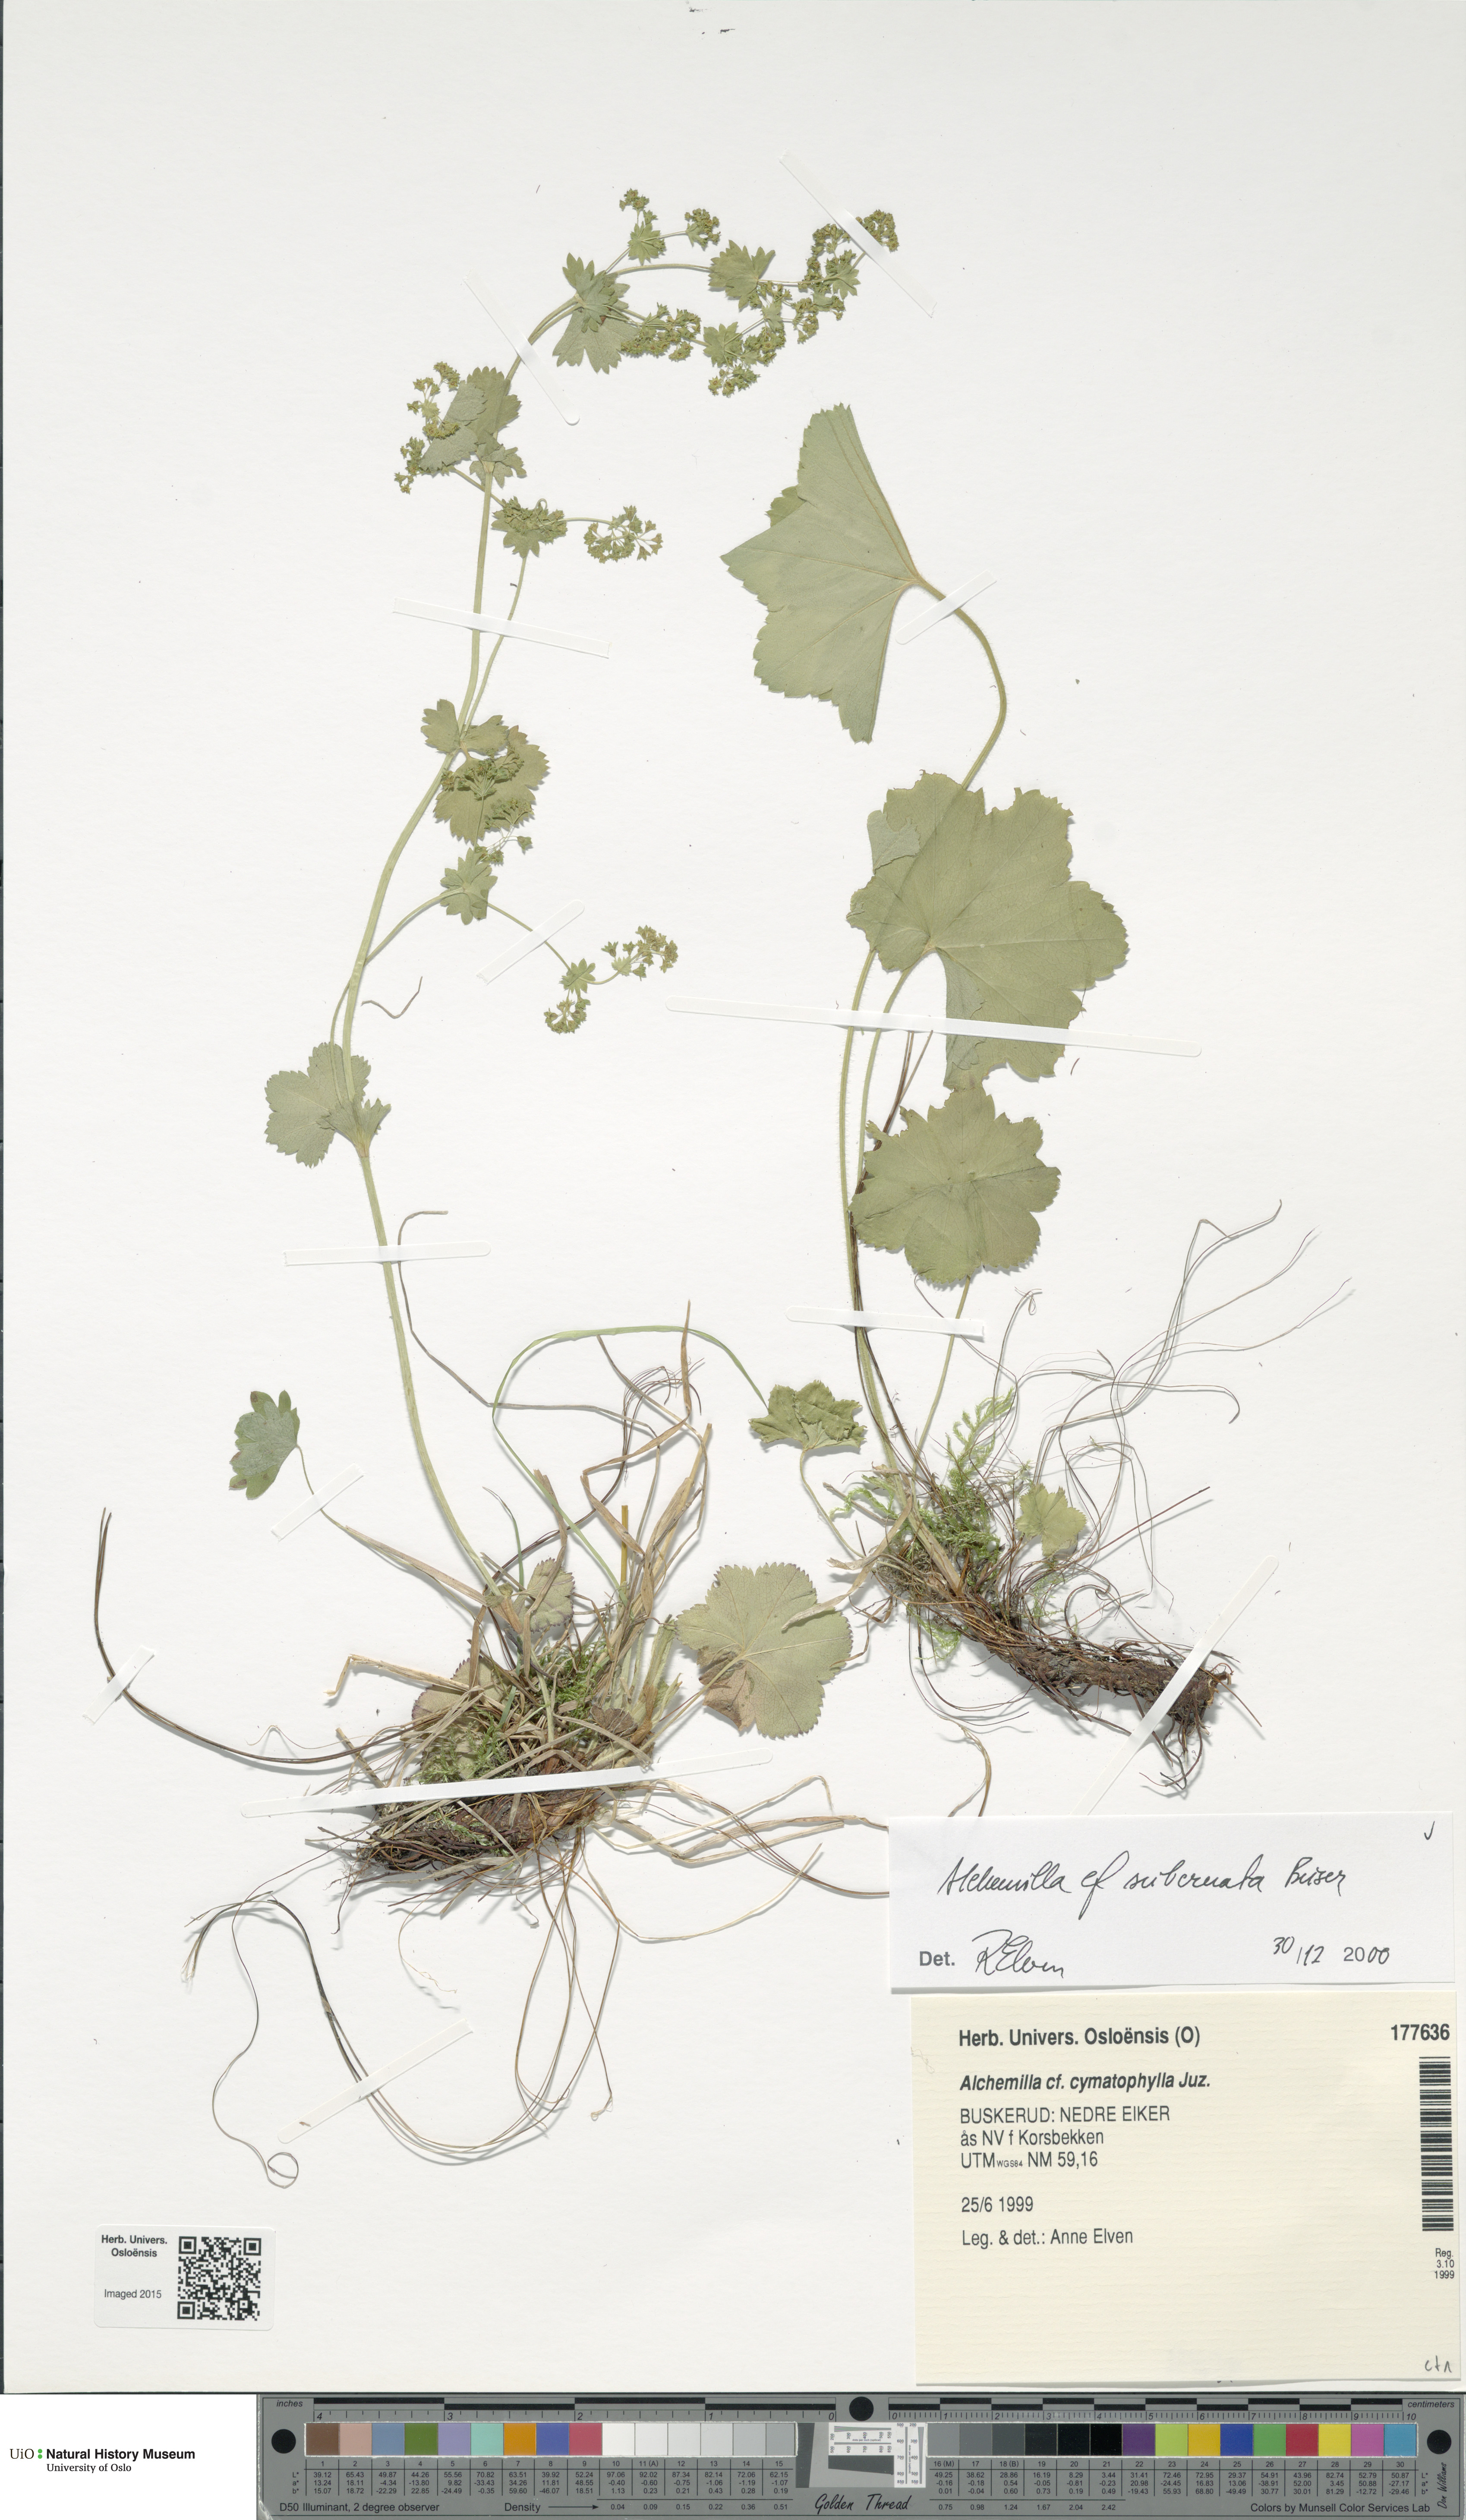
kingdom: Plantae
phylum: Tracheophyta
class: Magnoliopsida
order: Rosales
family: Rosaceae
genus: Alchemilla
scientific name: Alchemilla subcrenata
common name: Broadtooth lady's mantle
